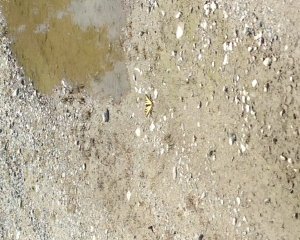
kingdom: Animalia
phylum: Arthropoda
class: Insecta
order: Lepidoptera
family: Papilionidae
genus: Pterourus
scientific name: Pterourus canadensis
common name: Canadian Tiger Swallowtail
